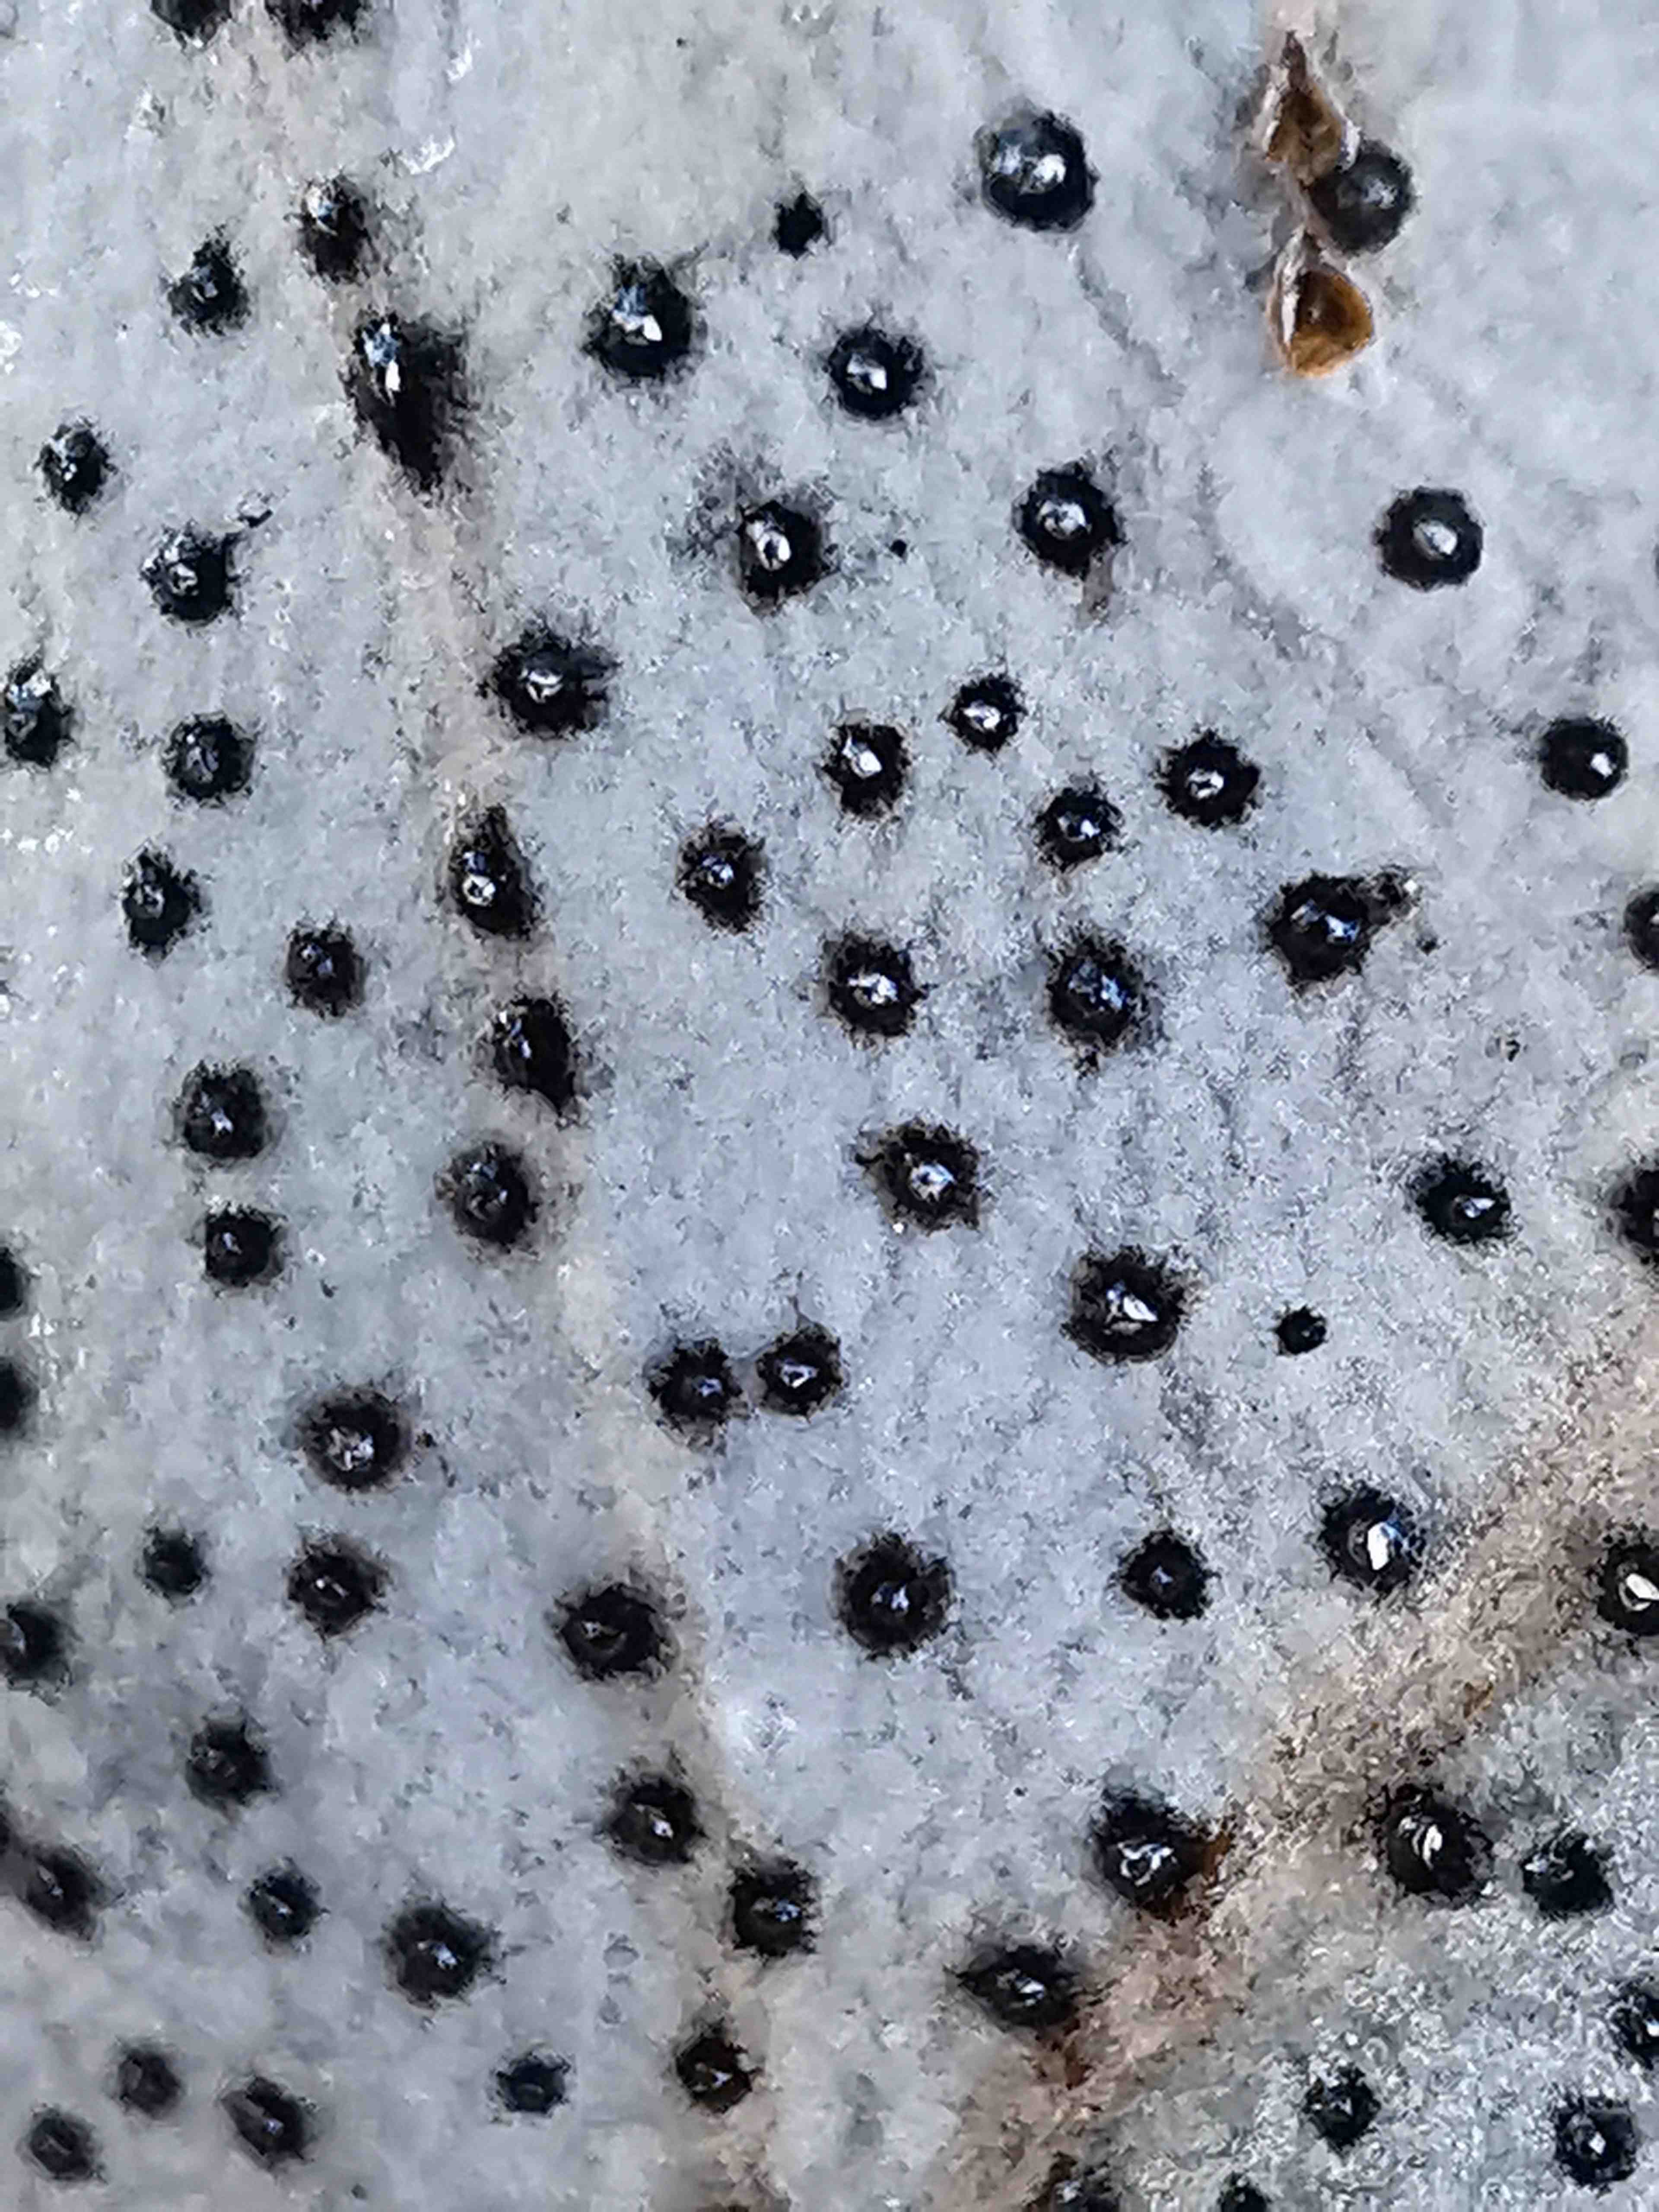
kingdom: Fungi
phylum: Ascomycota
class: Leotiomycetes
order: Phacidiales
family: Phacidiaceae
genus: Phacidium
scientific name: Phacidium lauri
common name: kristtorn-tandskive
